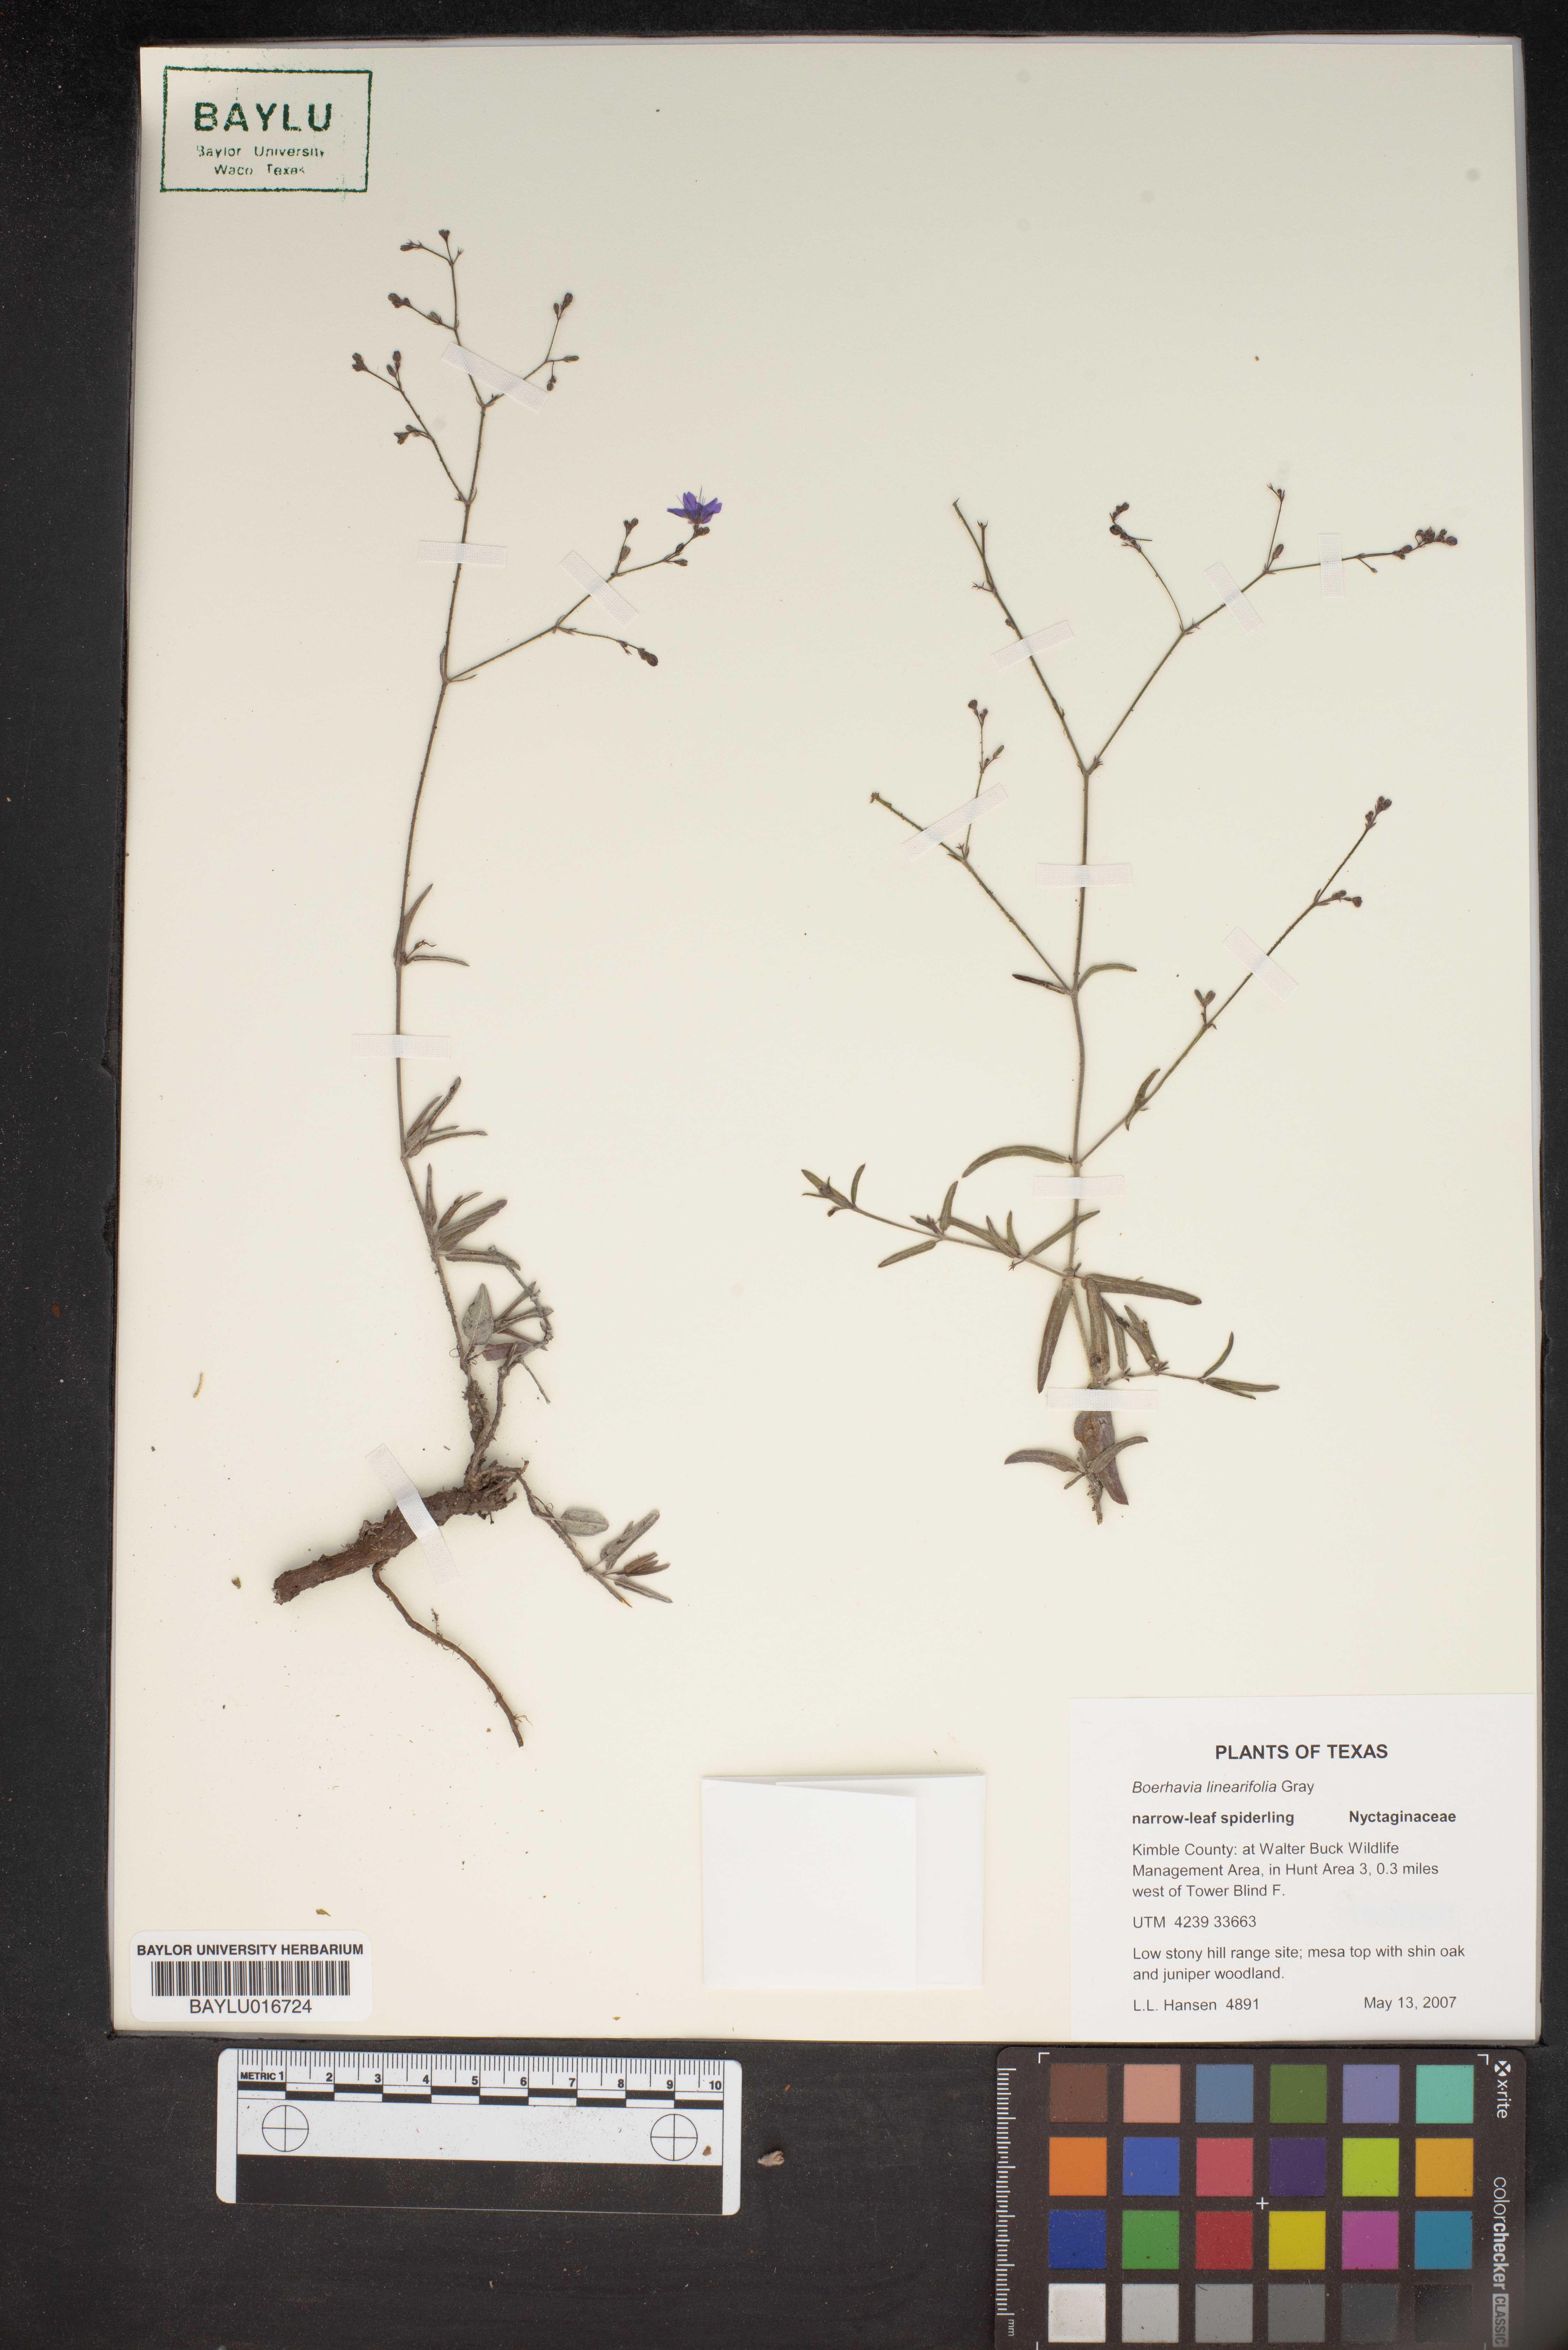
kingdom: Plantae
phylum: Tracheophyta
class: Magnoliopsida
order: Caryophyllales
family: Nyctaginaceae
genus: Boerhavia
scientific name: Boerhavia linearifolia
